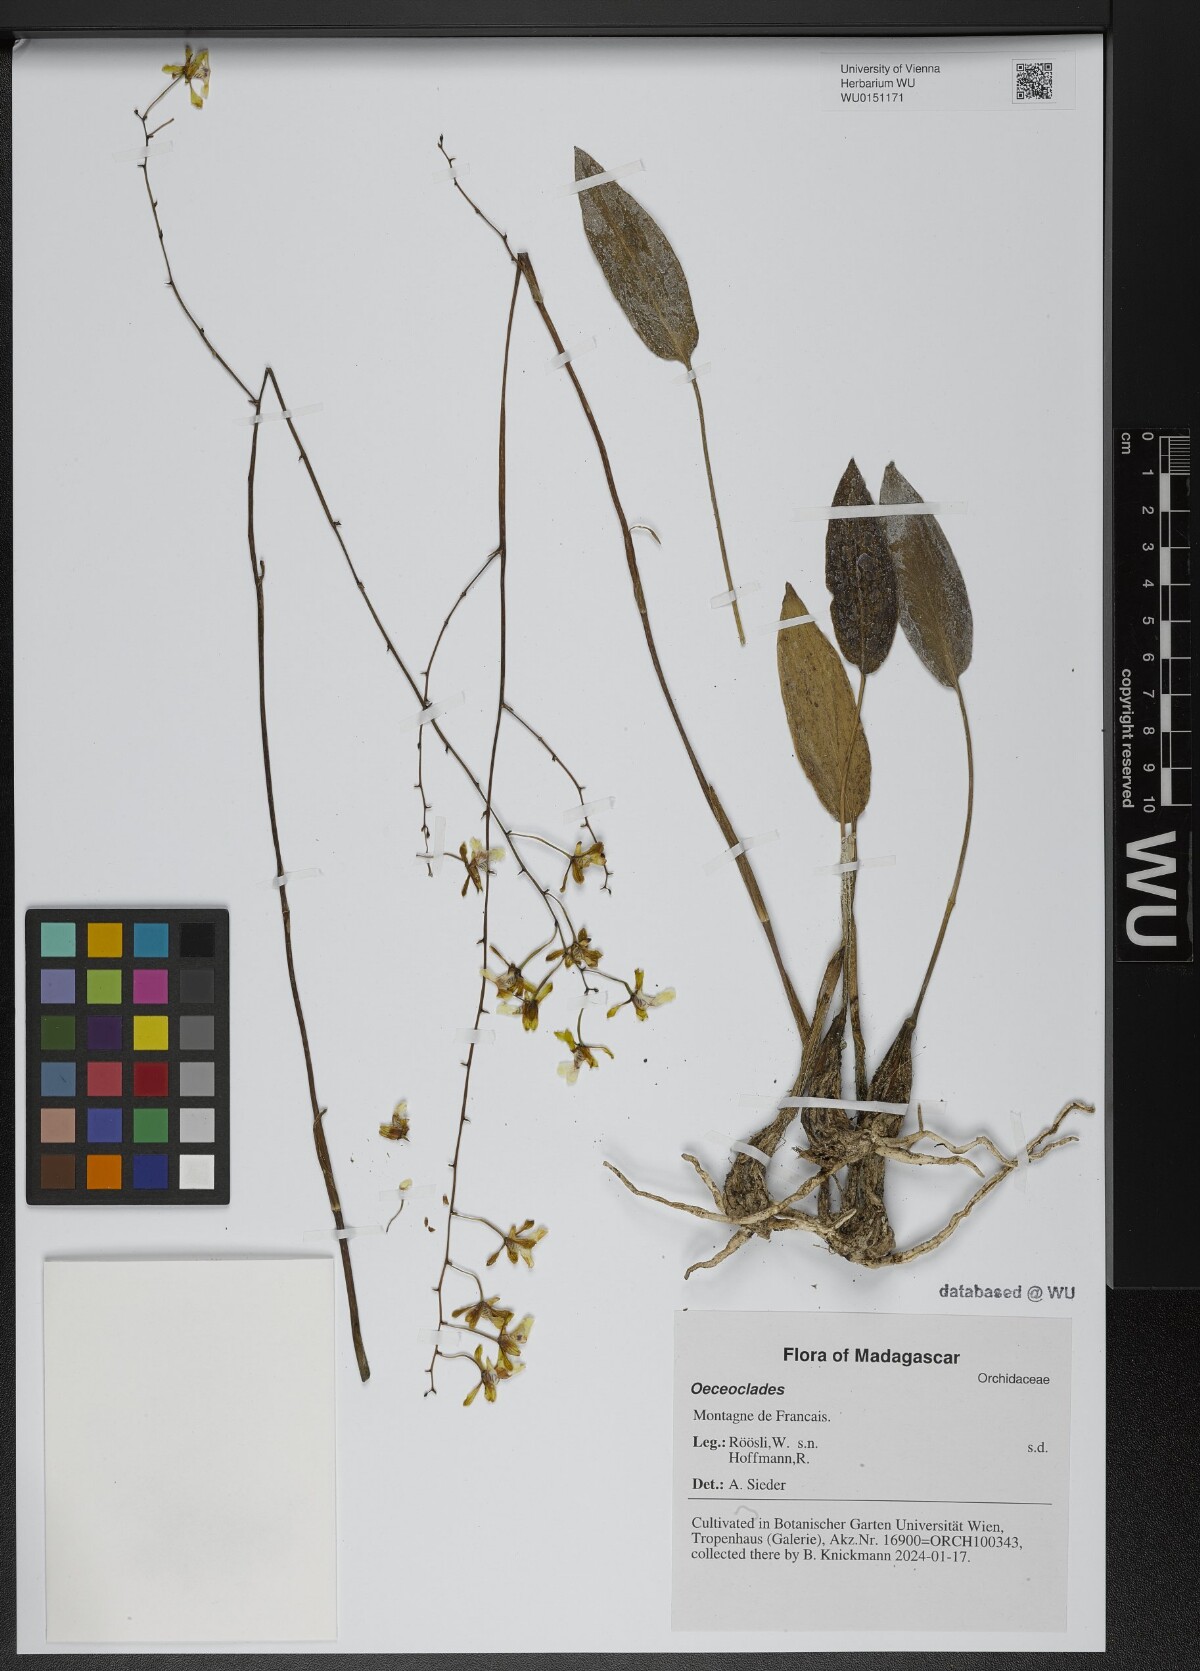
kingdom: Plantae
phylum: Tracheophyta
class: Liliopsida
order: Asparagales
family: Orchidaceae
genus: Eulophia
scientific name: Eulophia
